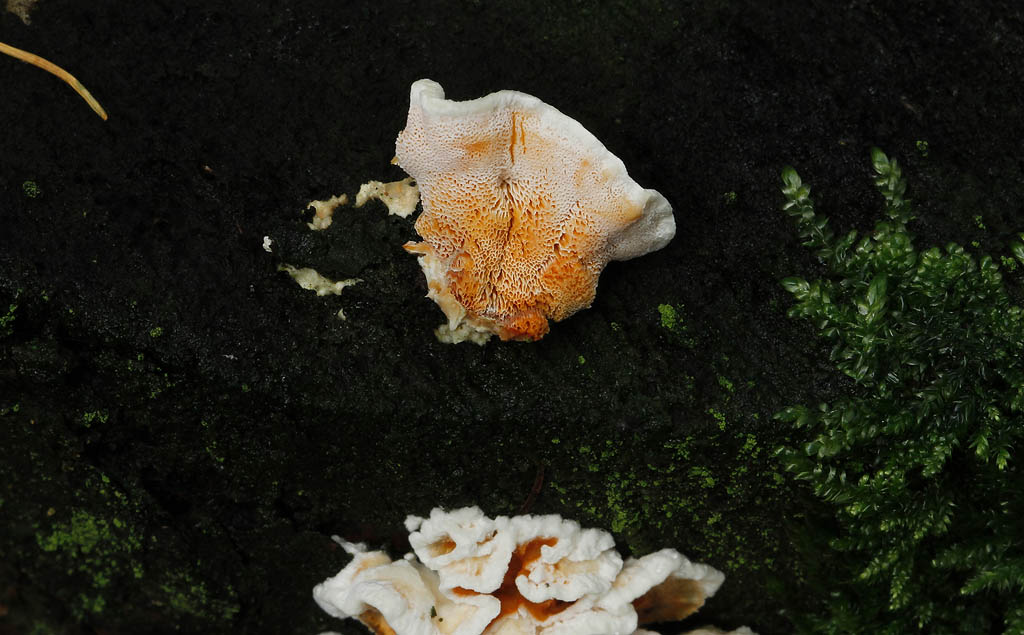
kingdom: Fungi
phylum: Basidiomycota
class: Agaricomycetes
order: Polyporales
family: Incrustoporiaceae
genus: Skeletocutis
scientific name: Skeletocutis amorpha
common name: orange krystalporesvamp
